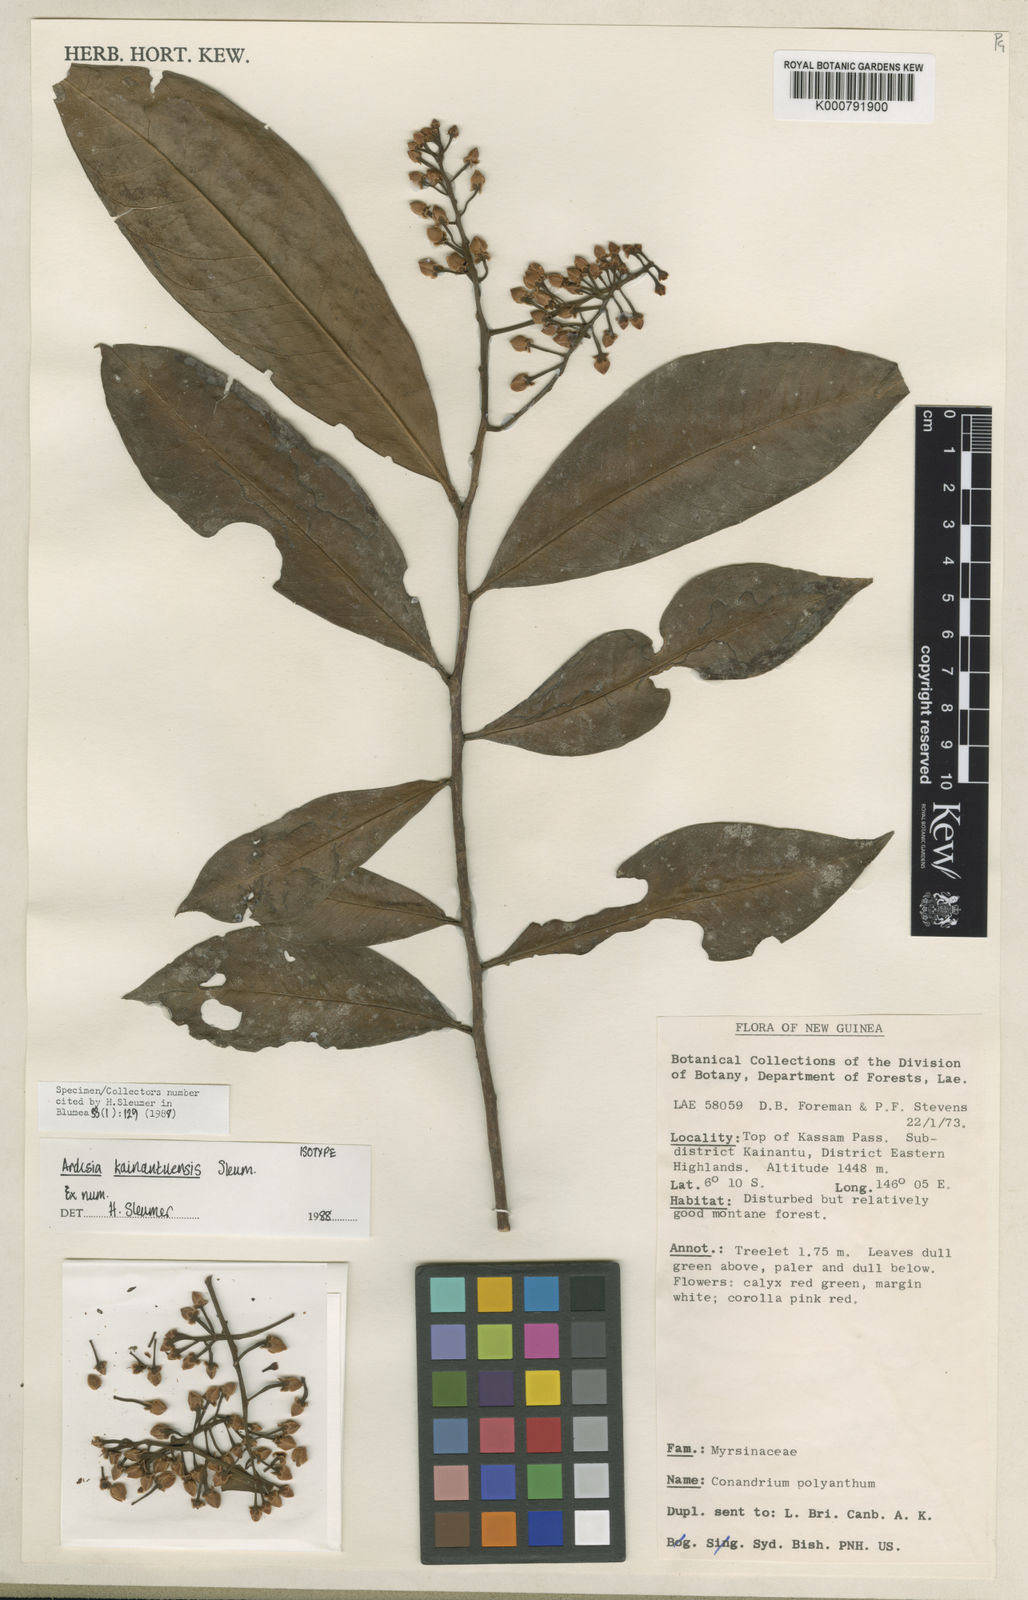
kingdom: Plantae
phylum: Tracheophyta
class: Magnoliopsida
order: Ericales
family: Primulaceae
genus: Ardisia
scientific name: Ardisia squarrosa
